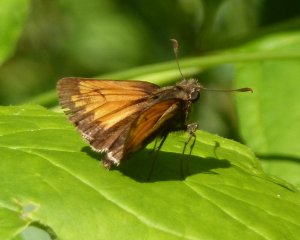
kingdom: Animalia
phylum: Arthropoda
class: Insecta
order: Lepidoptera
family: Hesperiidae
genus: Lon
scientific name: Lon hobomok
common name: Hobomok Skipper
